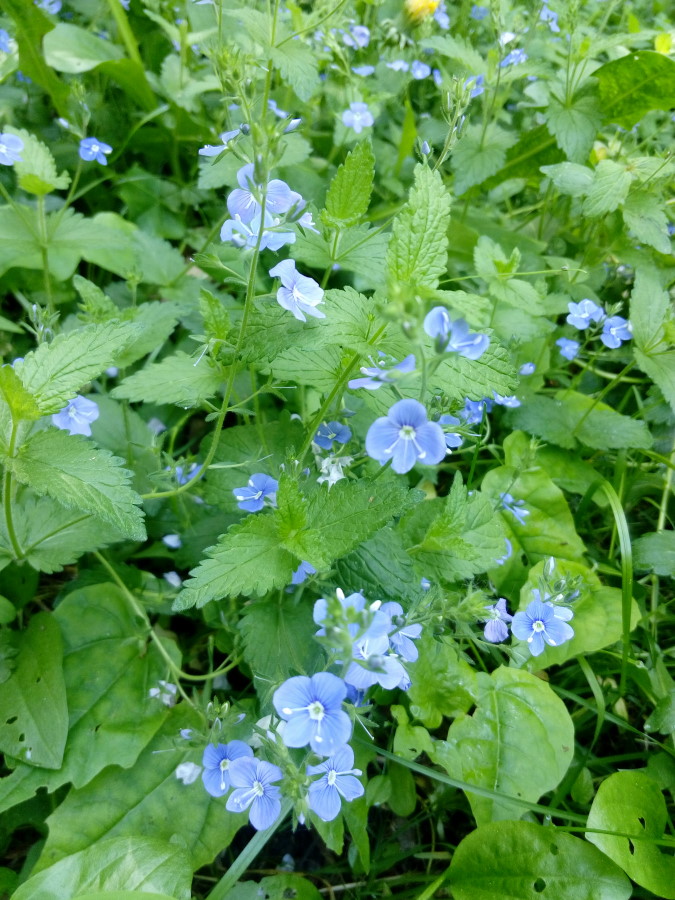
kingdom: Plantae
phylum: Tracheophyta
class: Magnoliopsida
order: Lamiales
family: Plantaginaceae
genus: Veronica
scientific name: Veronica chamaedrys
